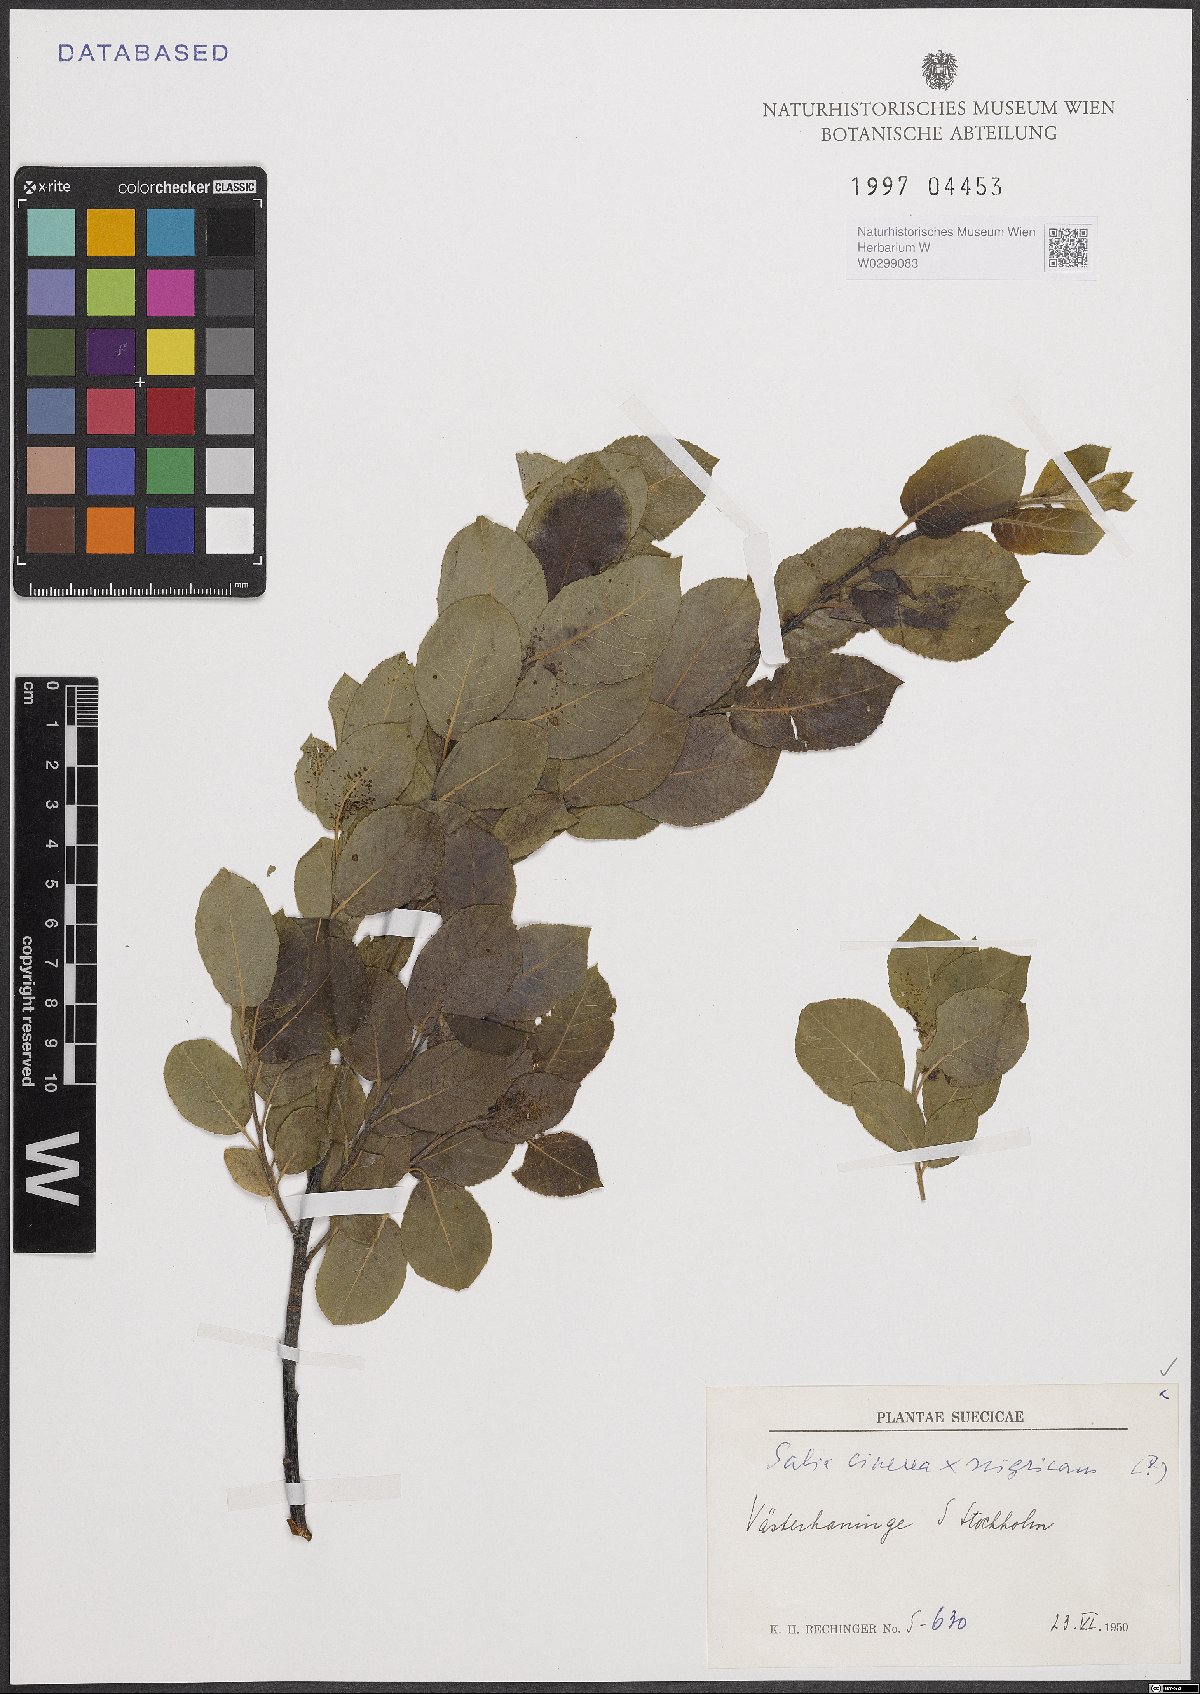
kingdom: Plantae
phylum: Tracheophyta
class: Magnoliopsida
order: Malpighiales
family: Salicaceae
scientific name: Salicaceae
